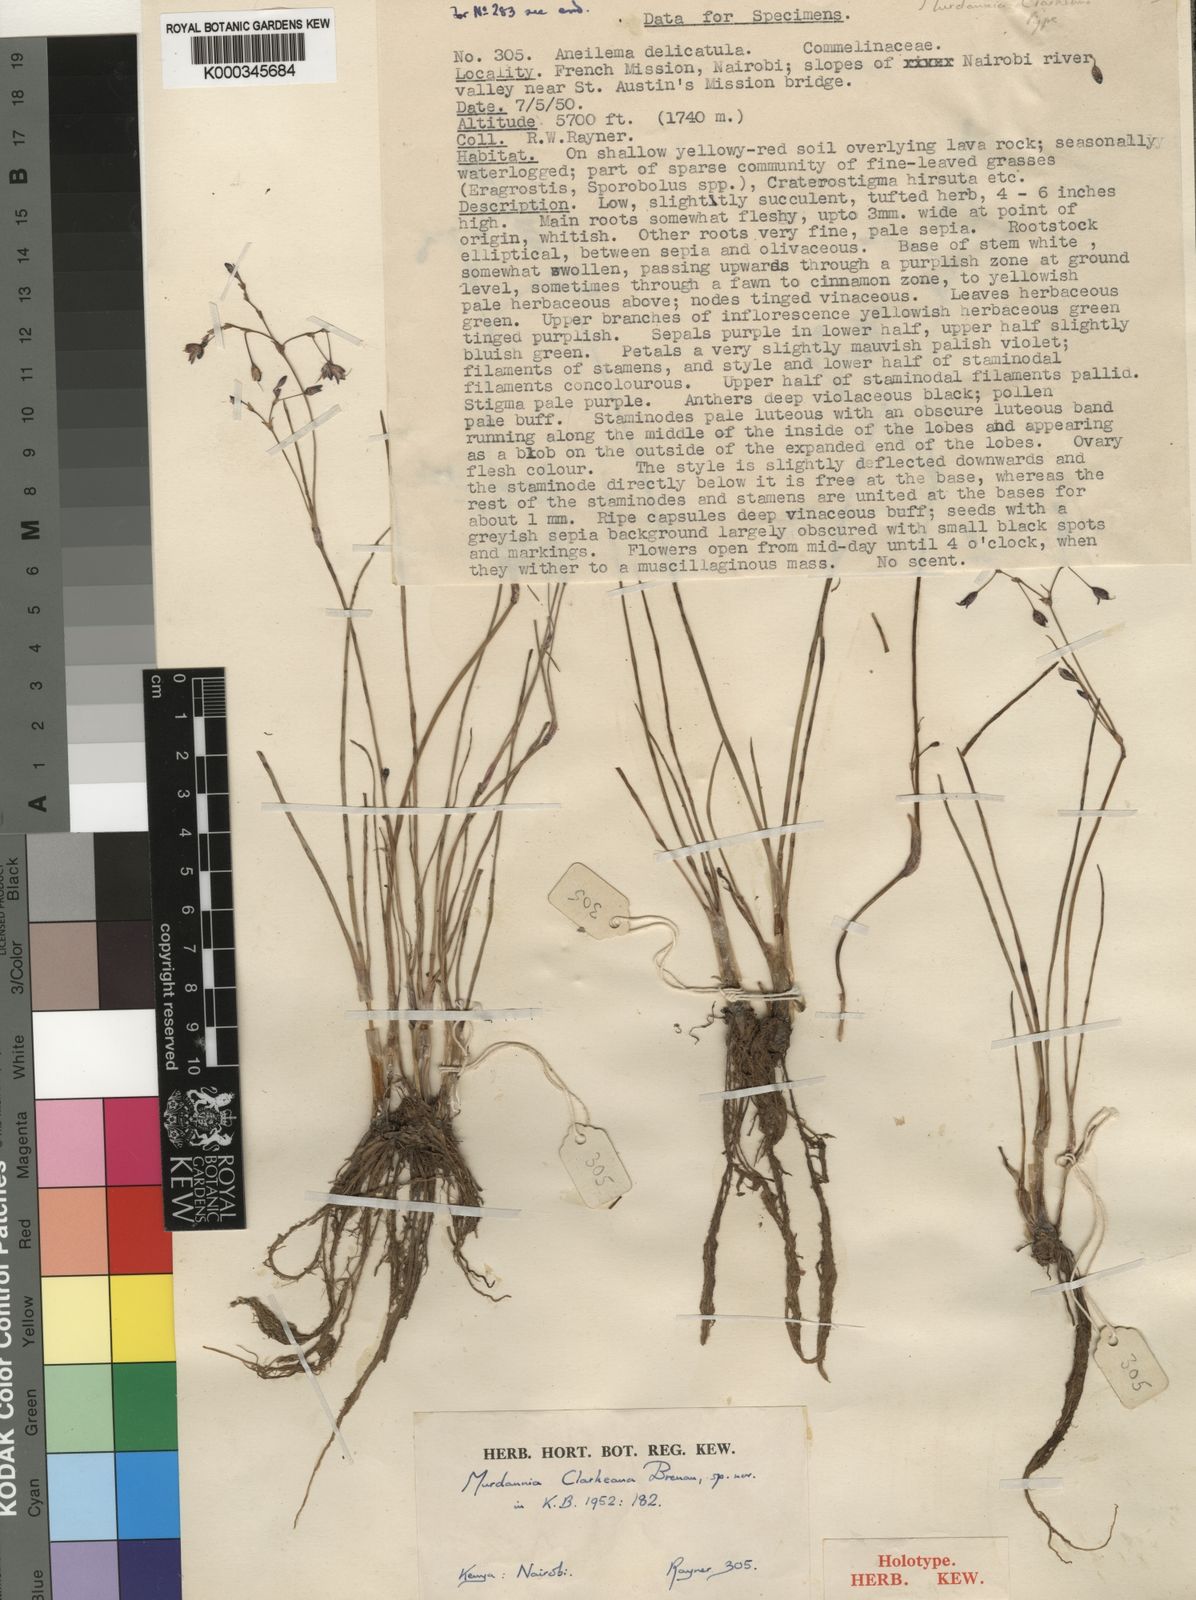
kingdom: Plantae
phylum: Tracheophyta
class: Liliopsida
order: Commelinales
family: Commelinaceae
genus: Murdannia
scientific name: Murdannia clarkeana
